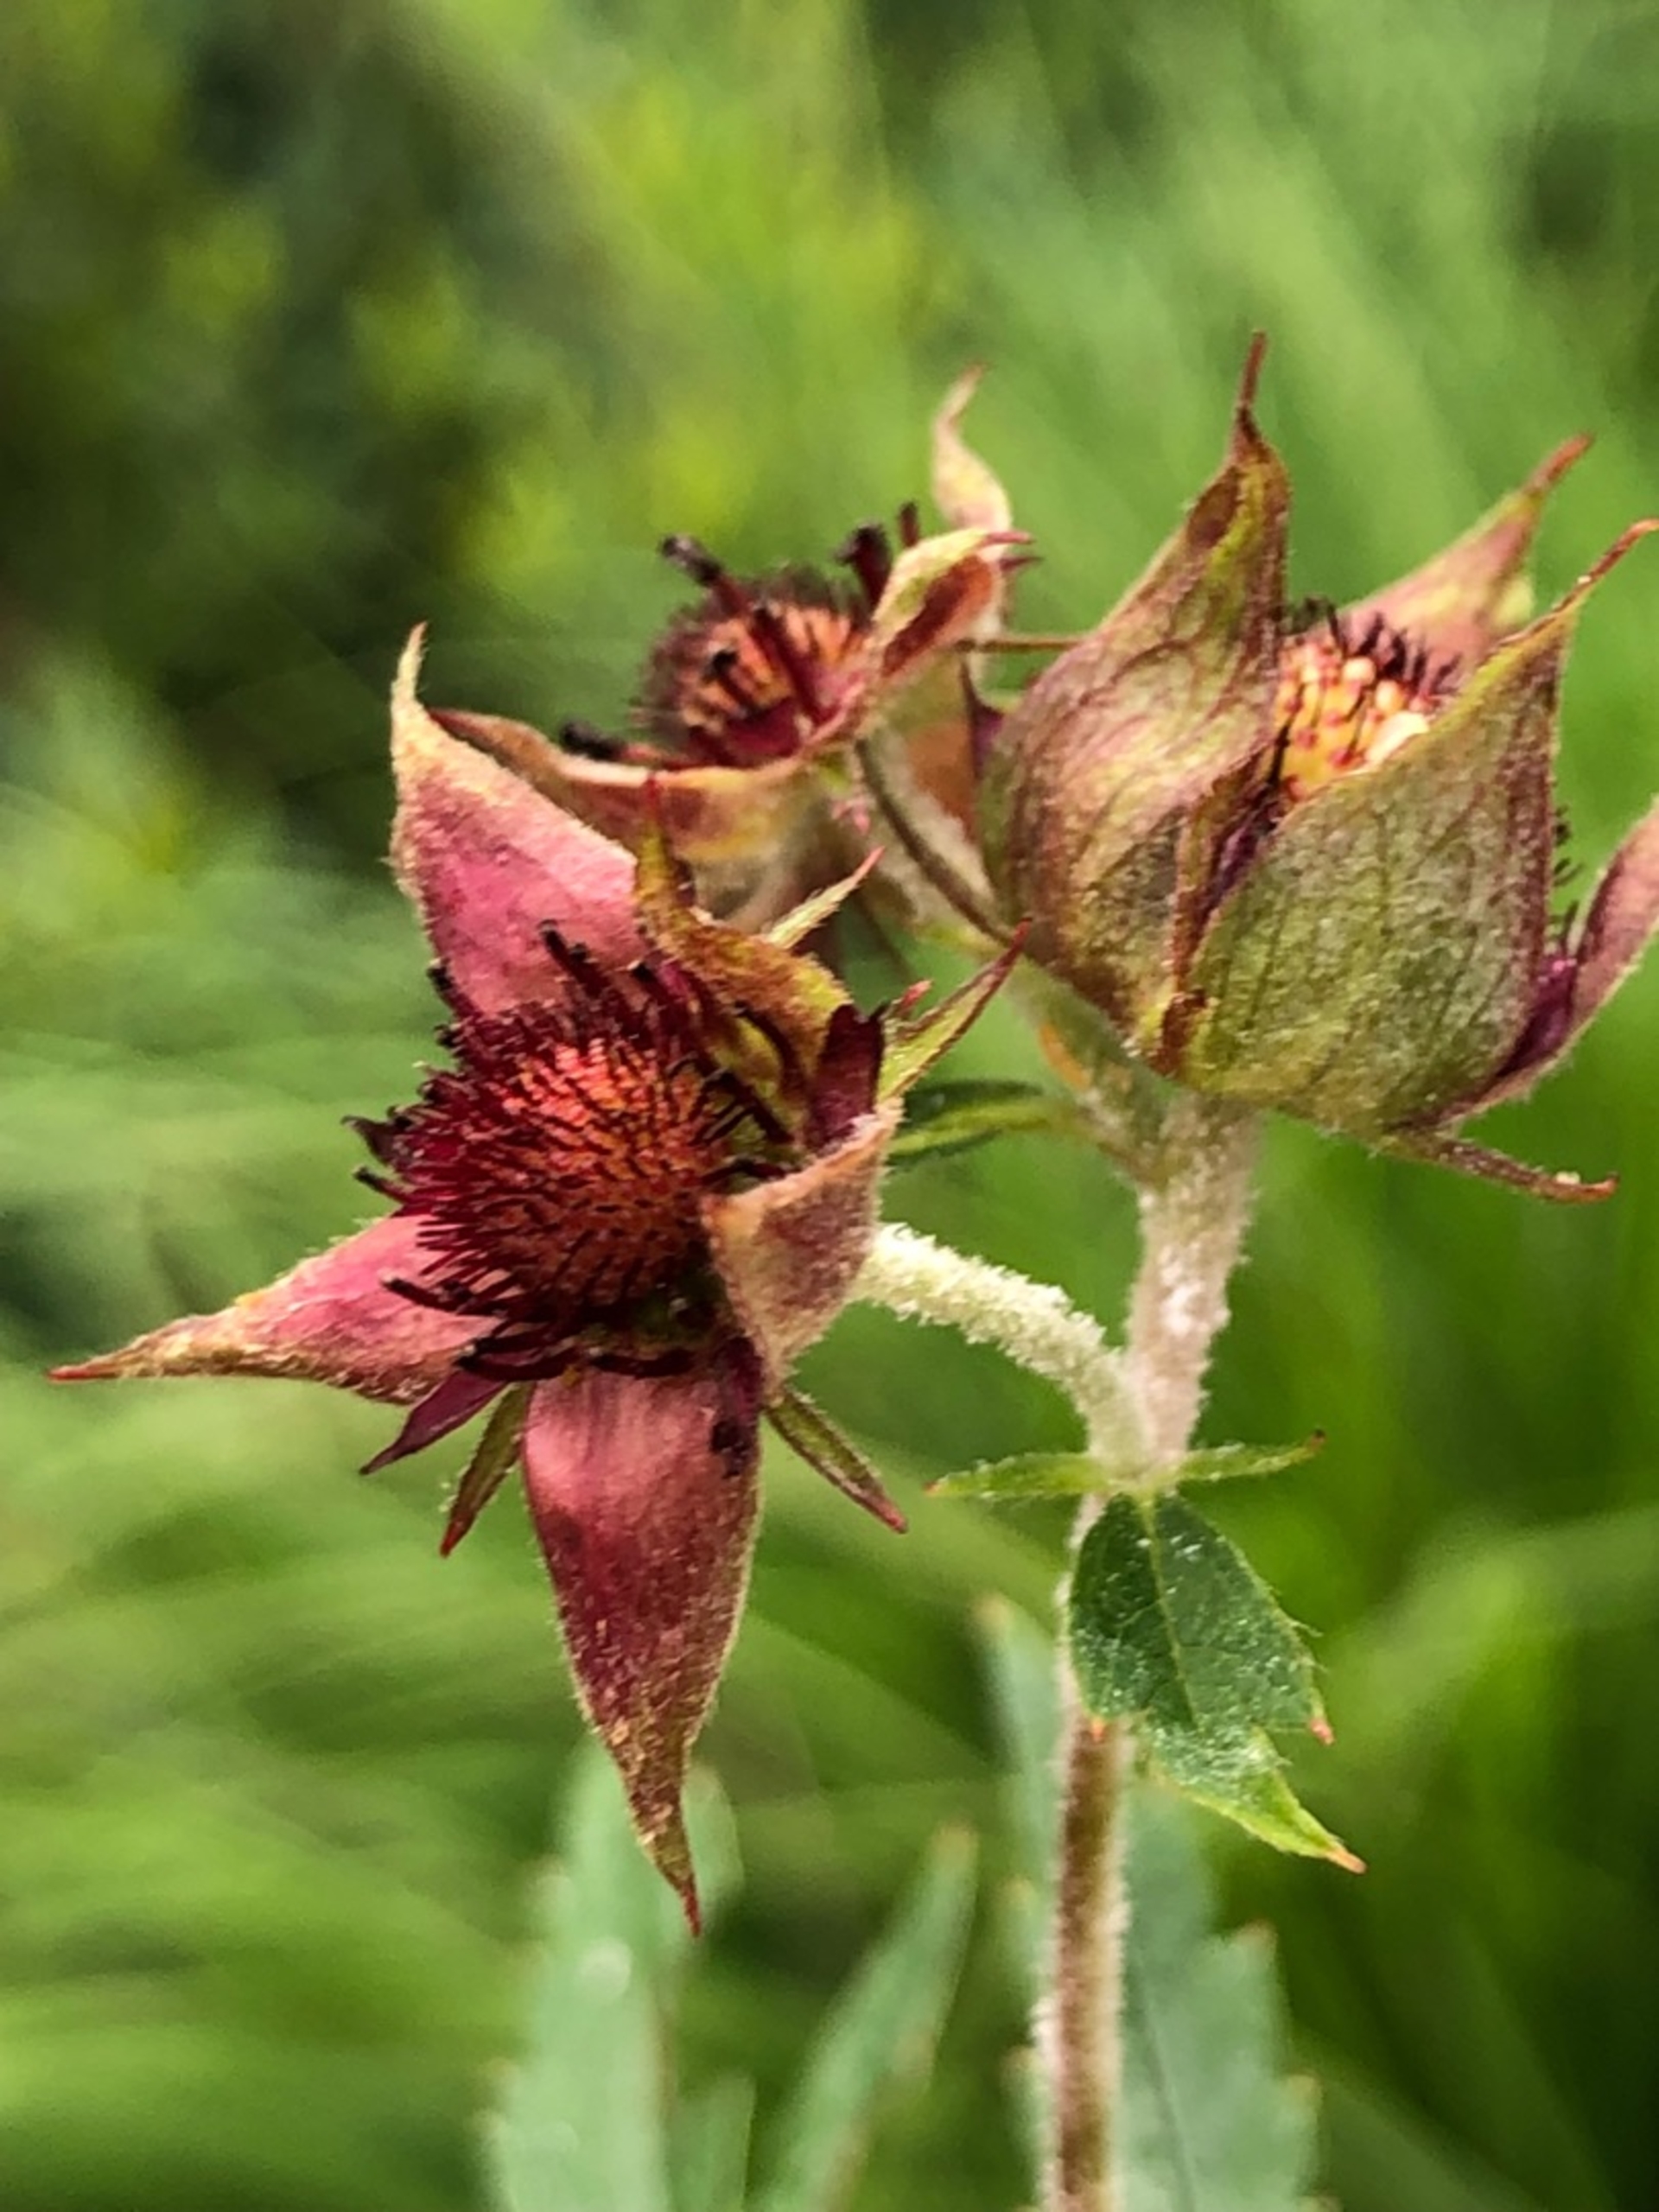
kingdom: Plantae
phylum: Tracheophyta
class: Magnoliopsida
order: Rosales
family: Rosaceae
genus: Comarum
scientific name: Comarum palustre
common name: Kragefod
